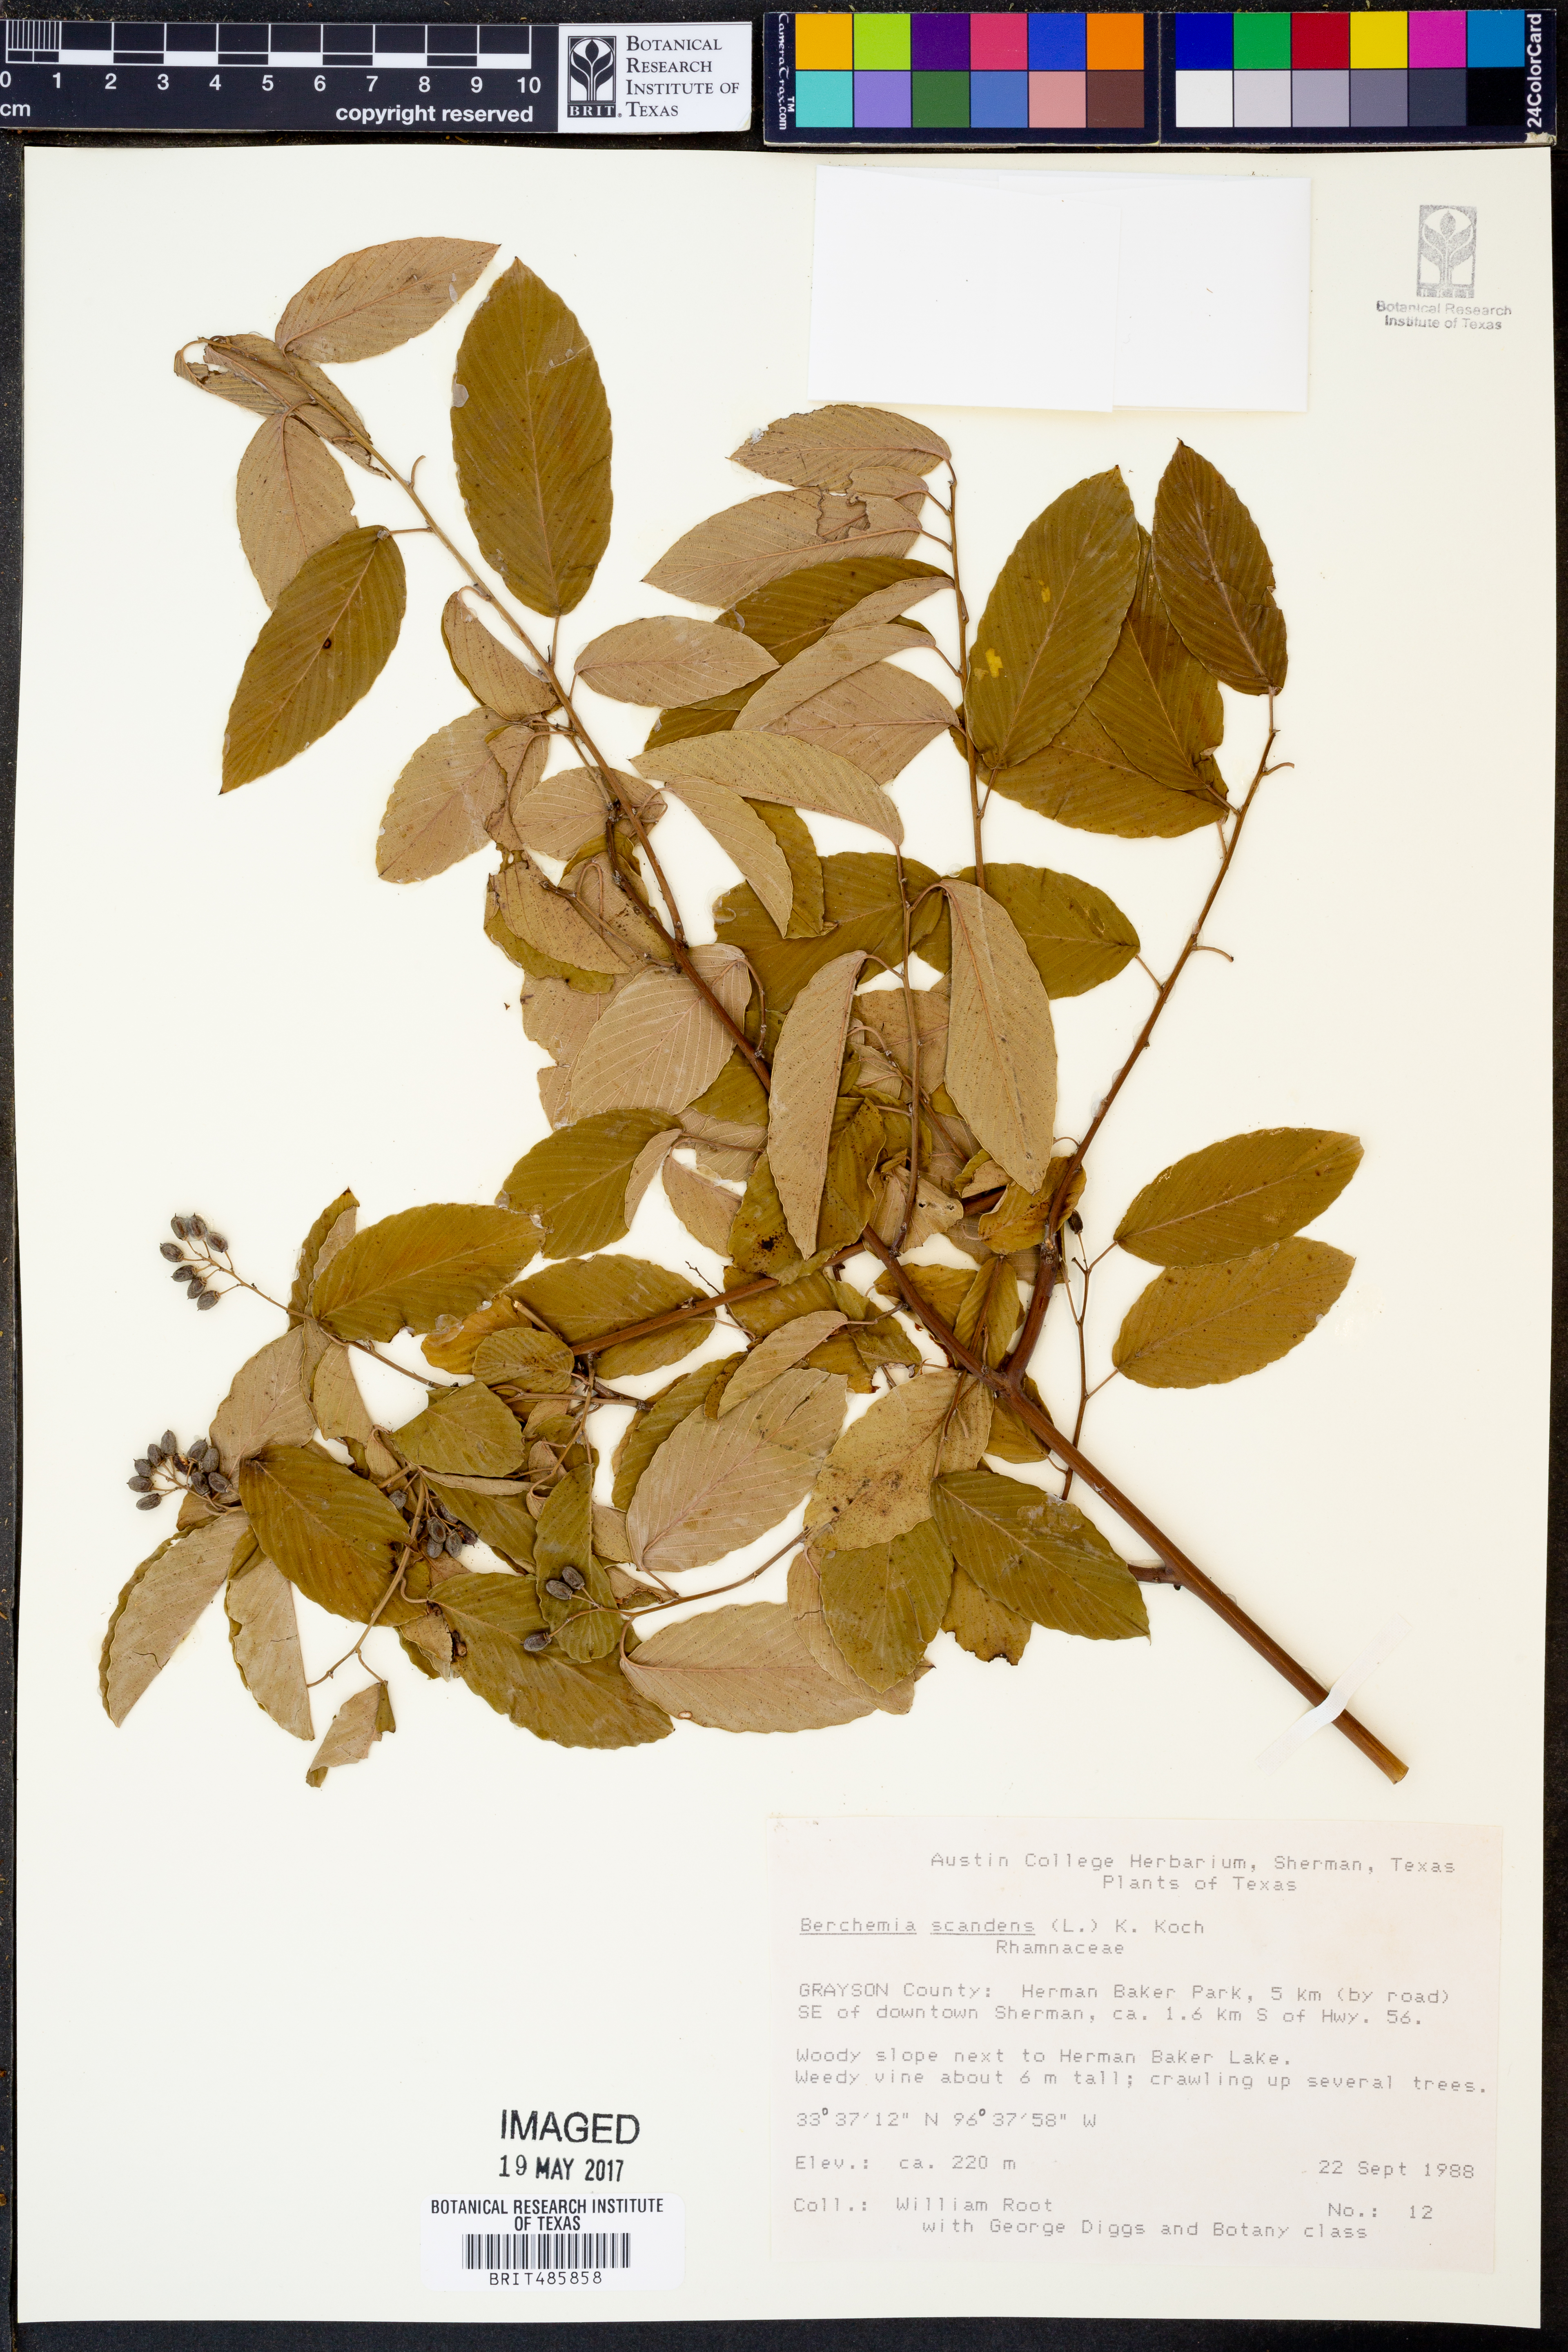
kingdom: Plantae
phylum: Tracheophyta
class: Magnoliopsida
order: Rosales
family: Rhamnaceae
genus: Berchemia
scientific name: Berchemia scandens
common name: Supplejack
